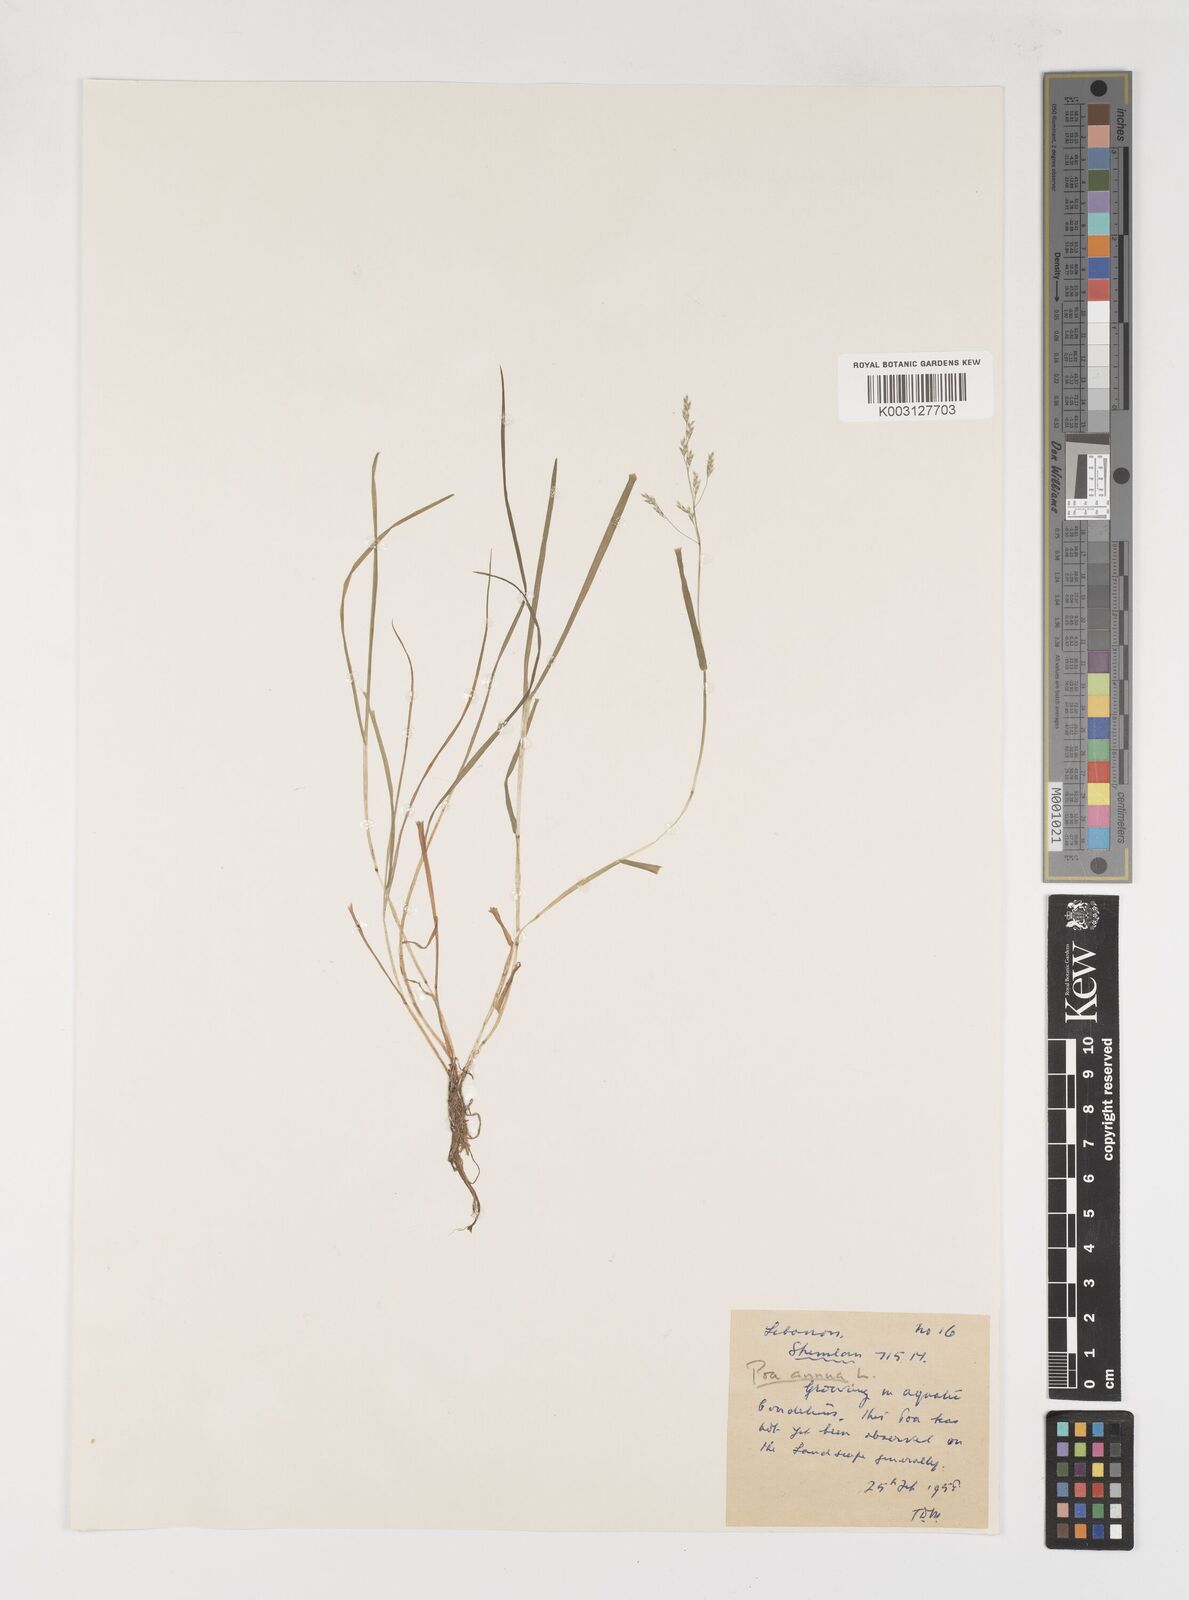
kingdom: Plantae
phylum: Tracheophyta
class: Liliopsida
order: Poales
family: Poaceae
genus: Poa
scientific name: Poa annua
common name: Annual bluegrass
